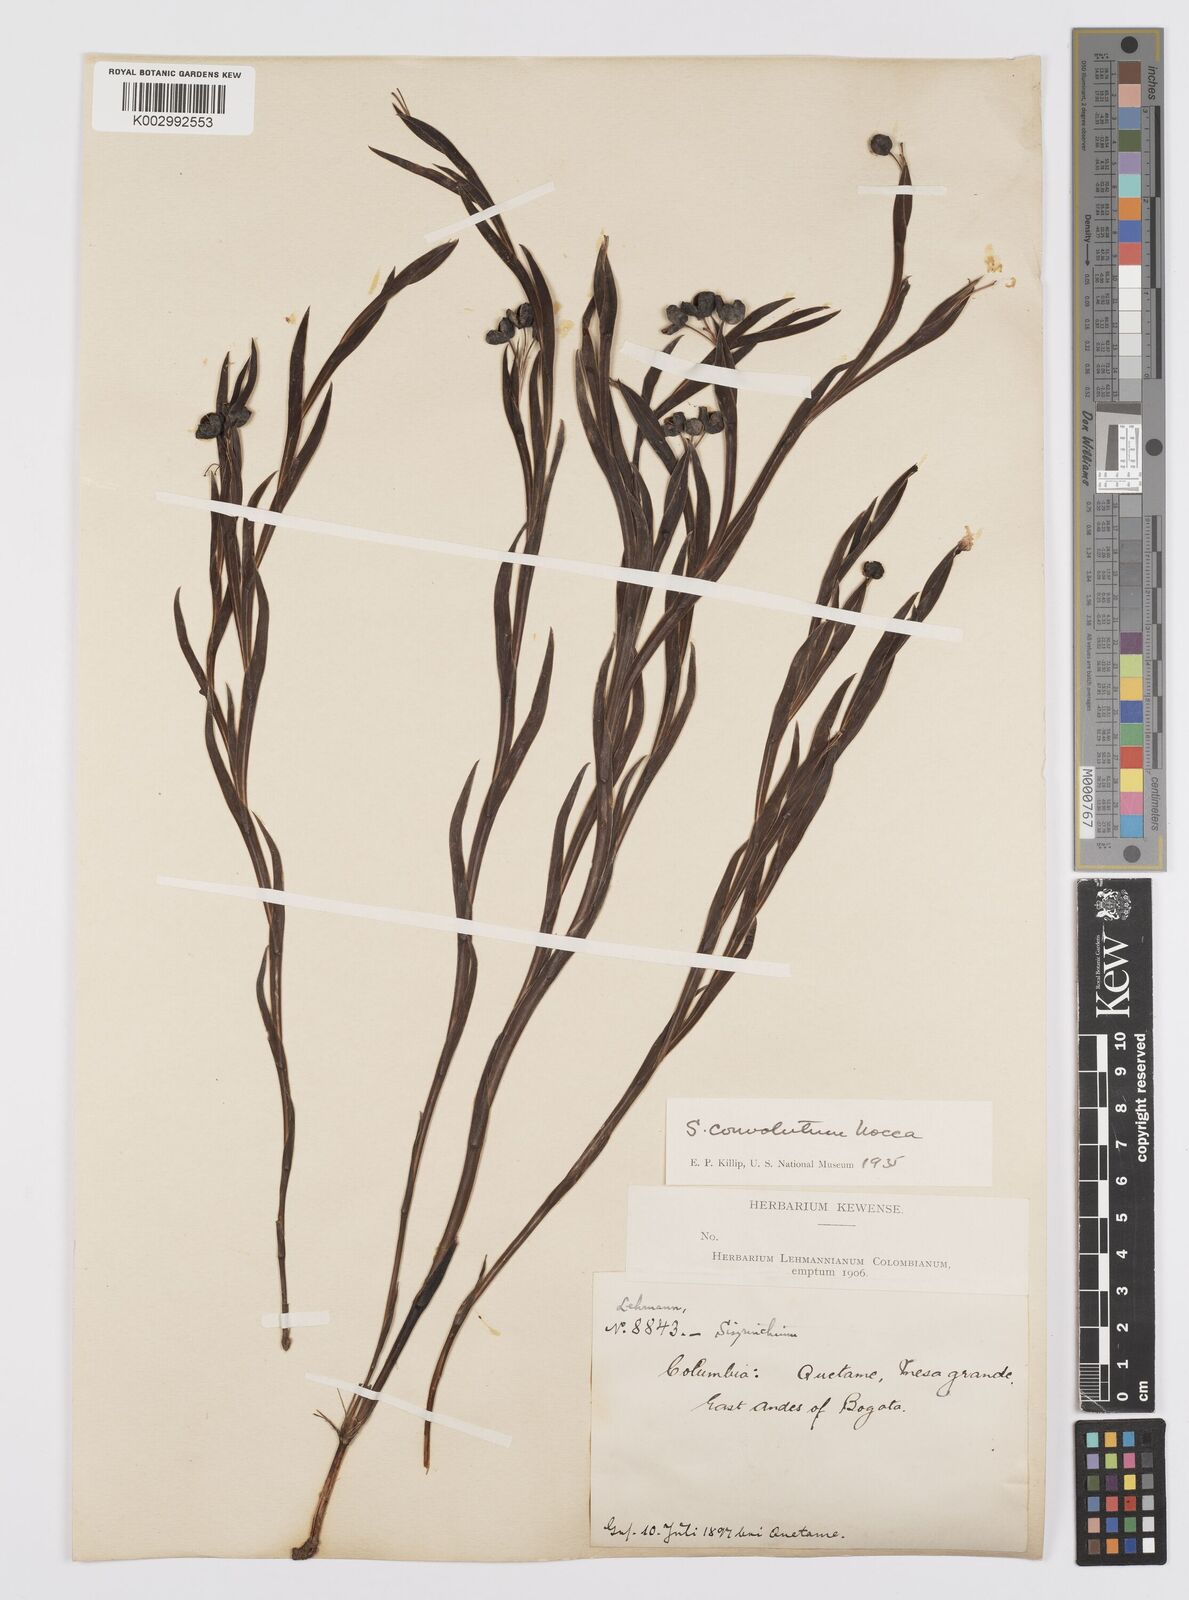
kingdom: Plantae
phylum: Tracheophyta
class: Liliopsida
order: Asparagales
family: Iridaceae
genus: Sisyrinchium
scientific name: Sisyrinchium convolutum
